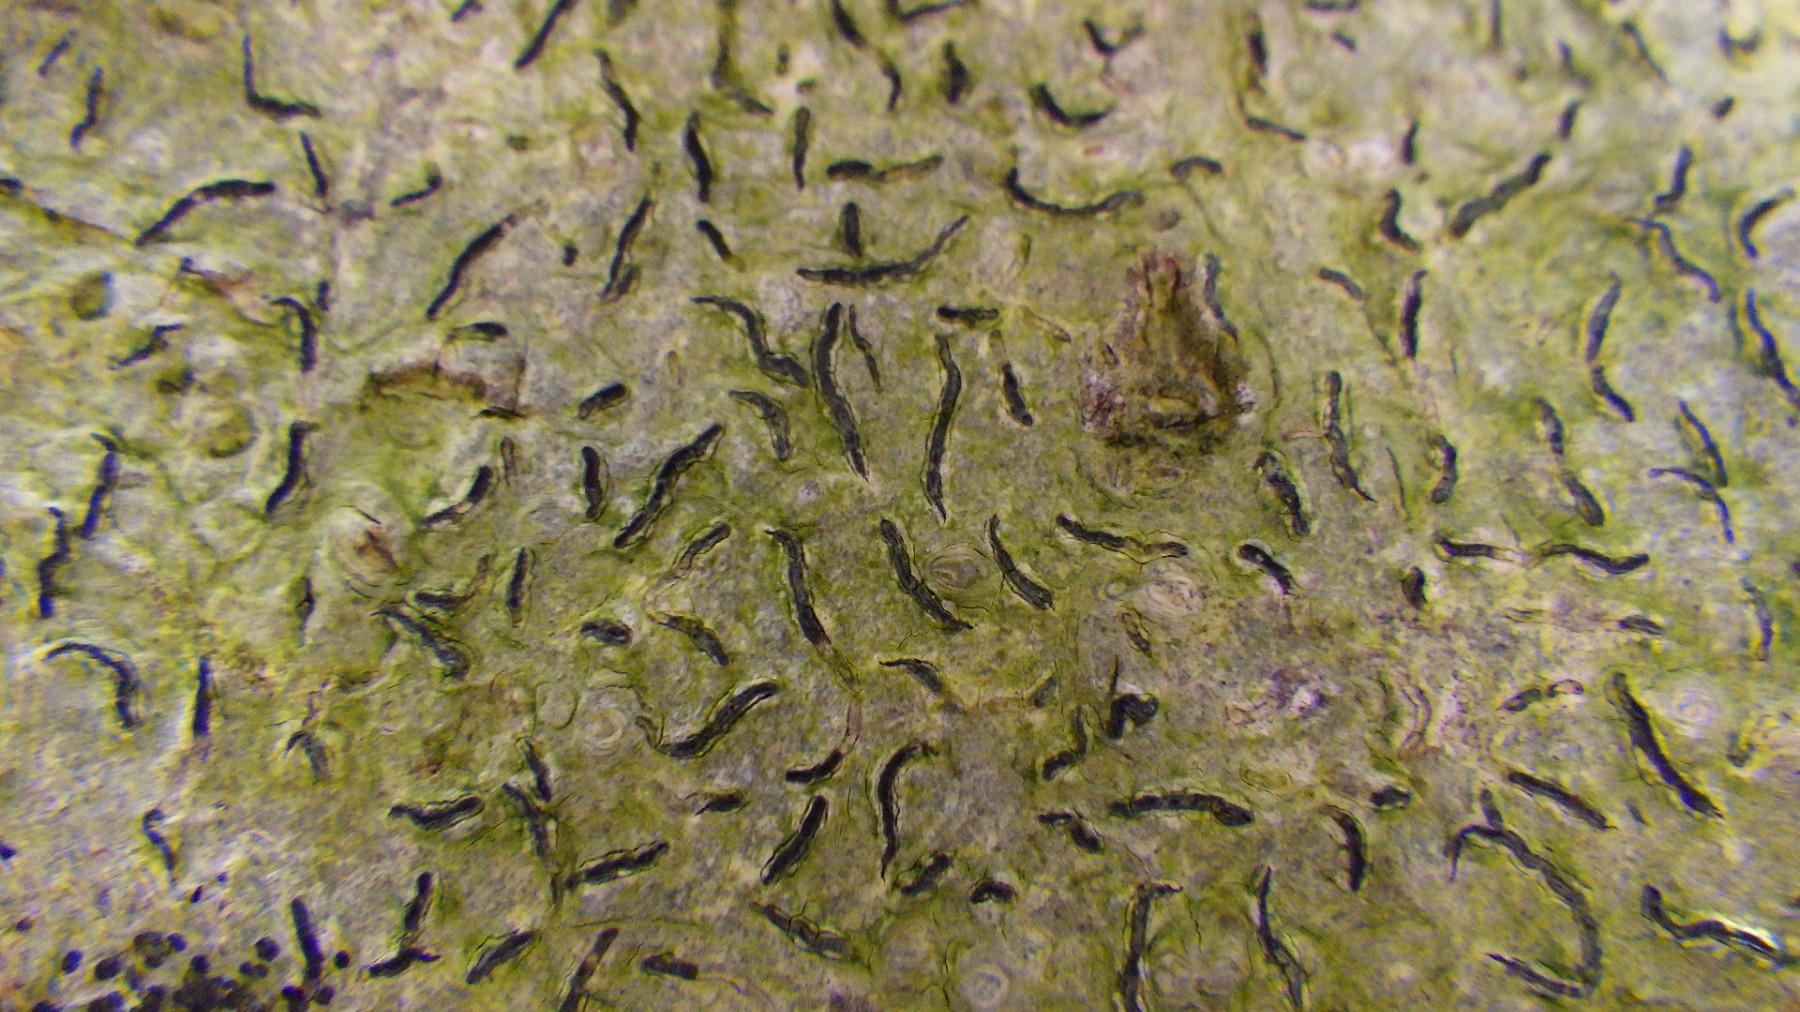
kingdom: Fungi
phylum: Ascomycota
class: Lecanoromycetes
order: Ostropales
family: Graphidaceae
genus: Graphis
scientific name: Graphis scripta
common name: almindelig skriftlav
